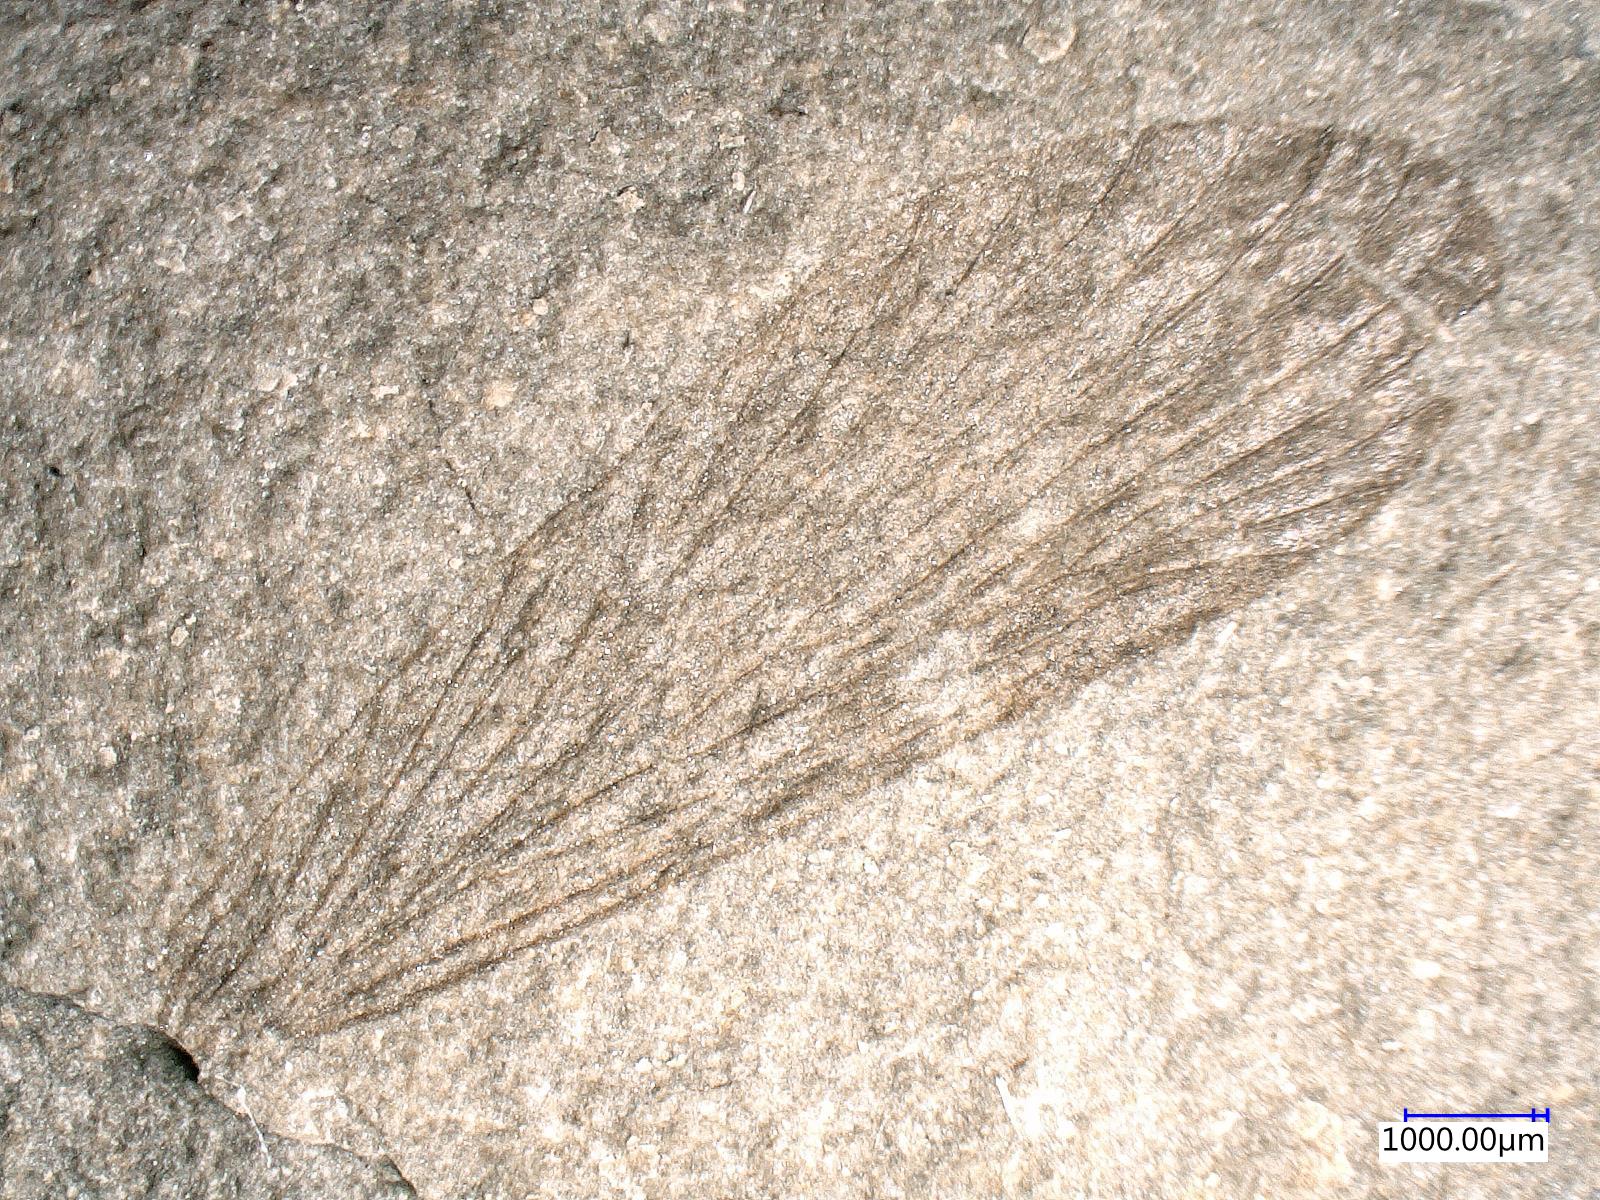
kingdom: Animalia
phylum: Arthropoda
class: Insecta
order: Mecoptera
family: Orthophlebiidae
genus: Orthophlebia
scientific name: Orthophlebia
